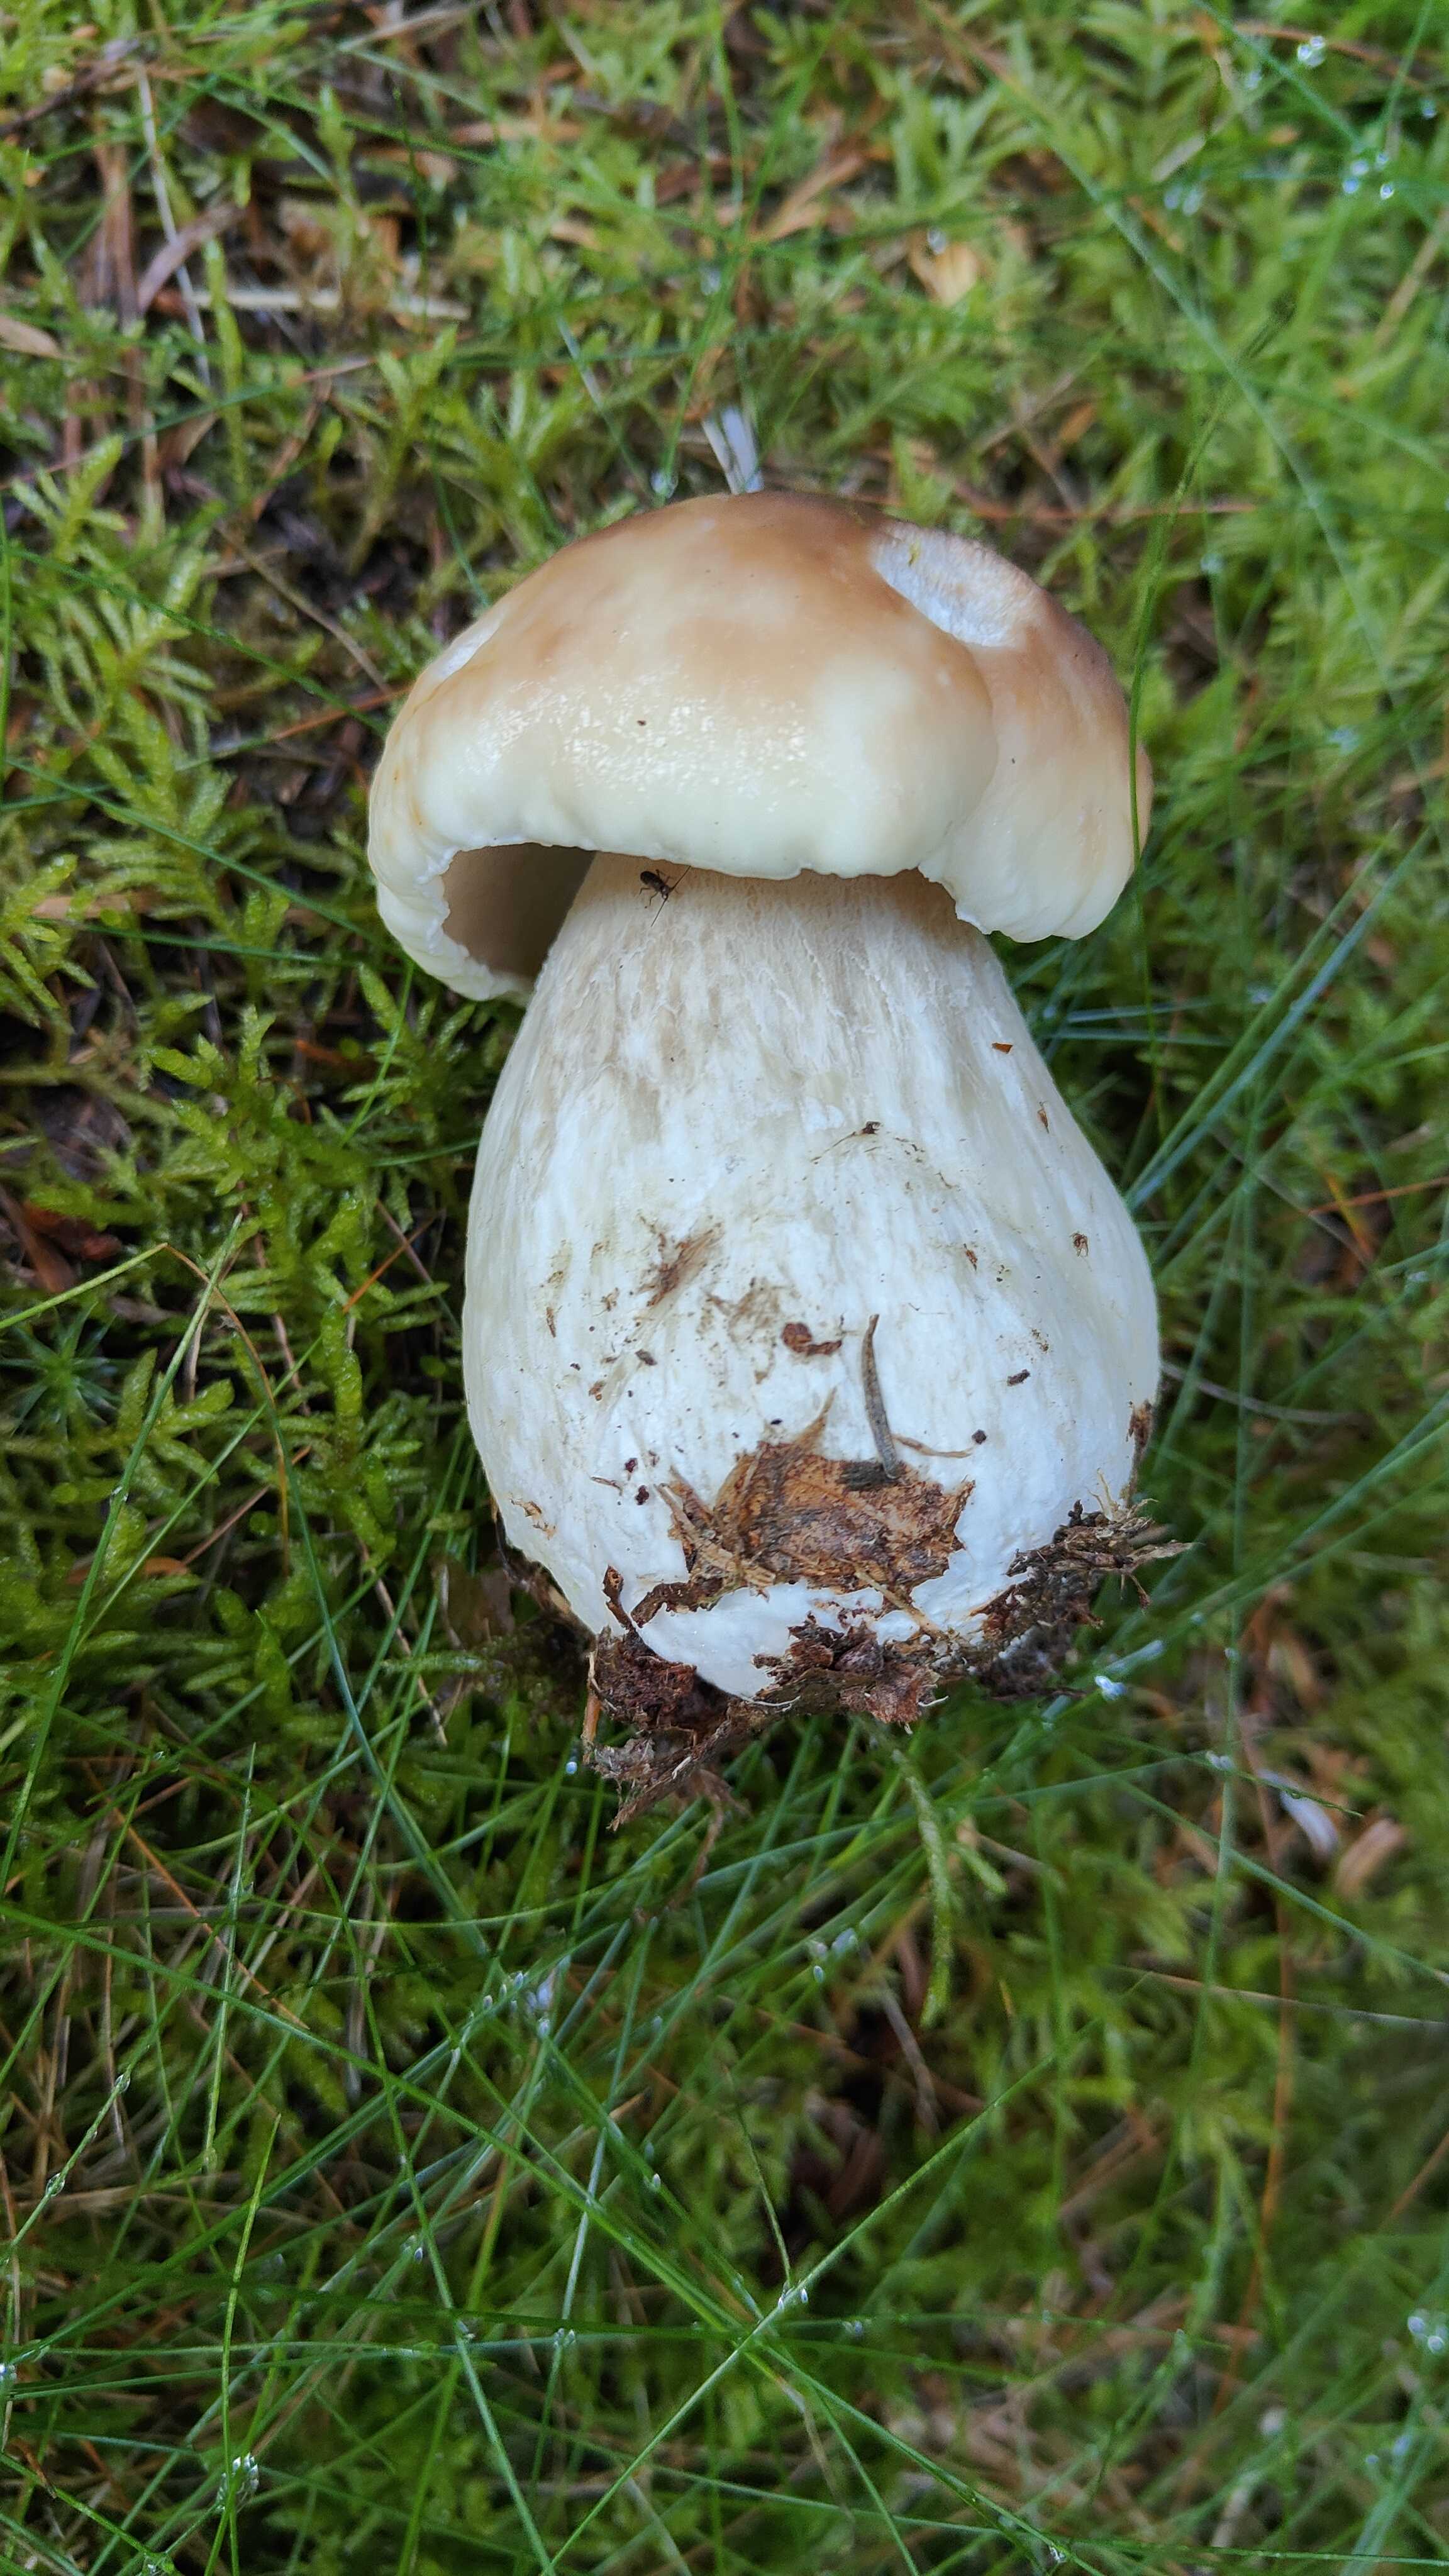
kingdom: Fungi
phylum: Basidiomycota
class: Agaricomycetes
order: Boletales
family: Boletaceae
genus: Boletus
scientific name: Boletus edulis
